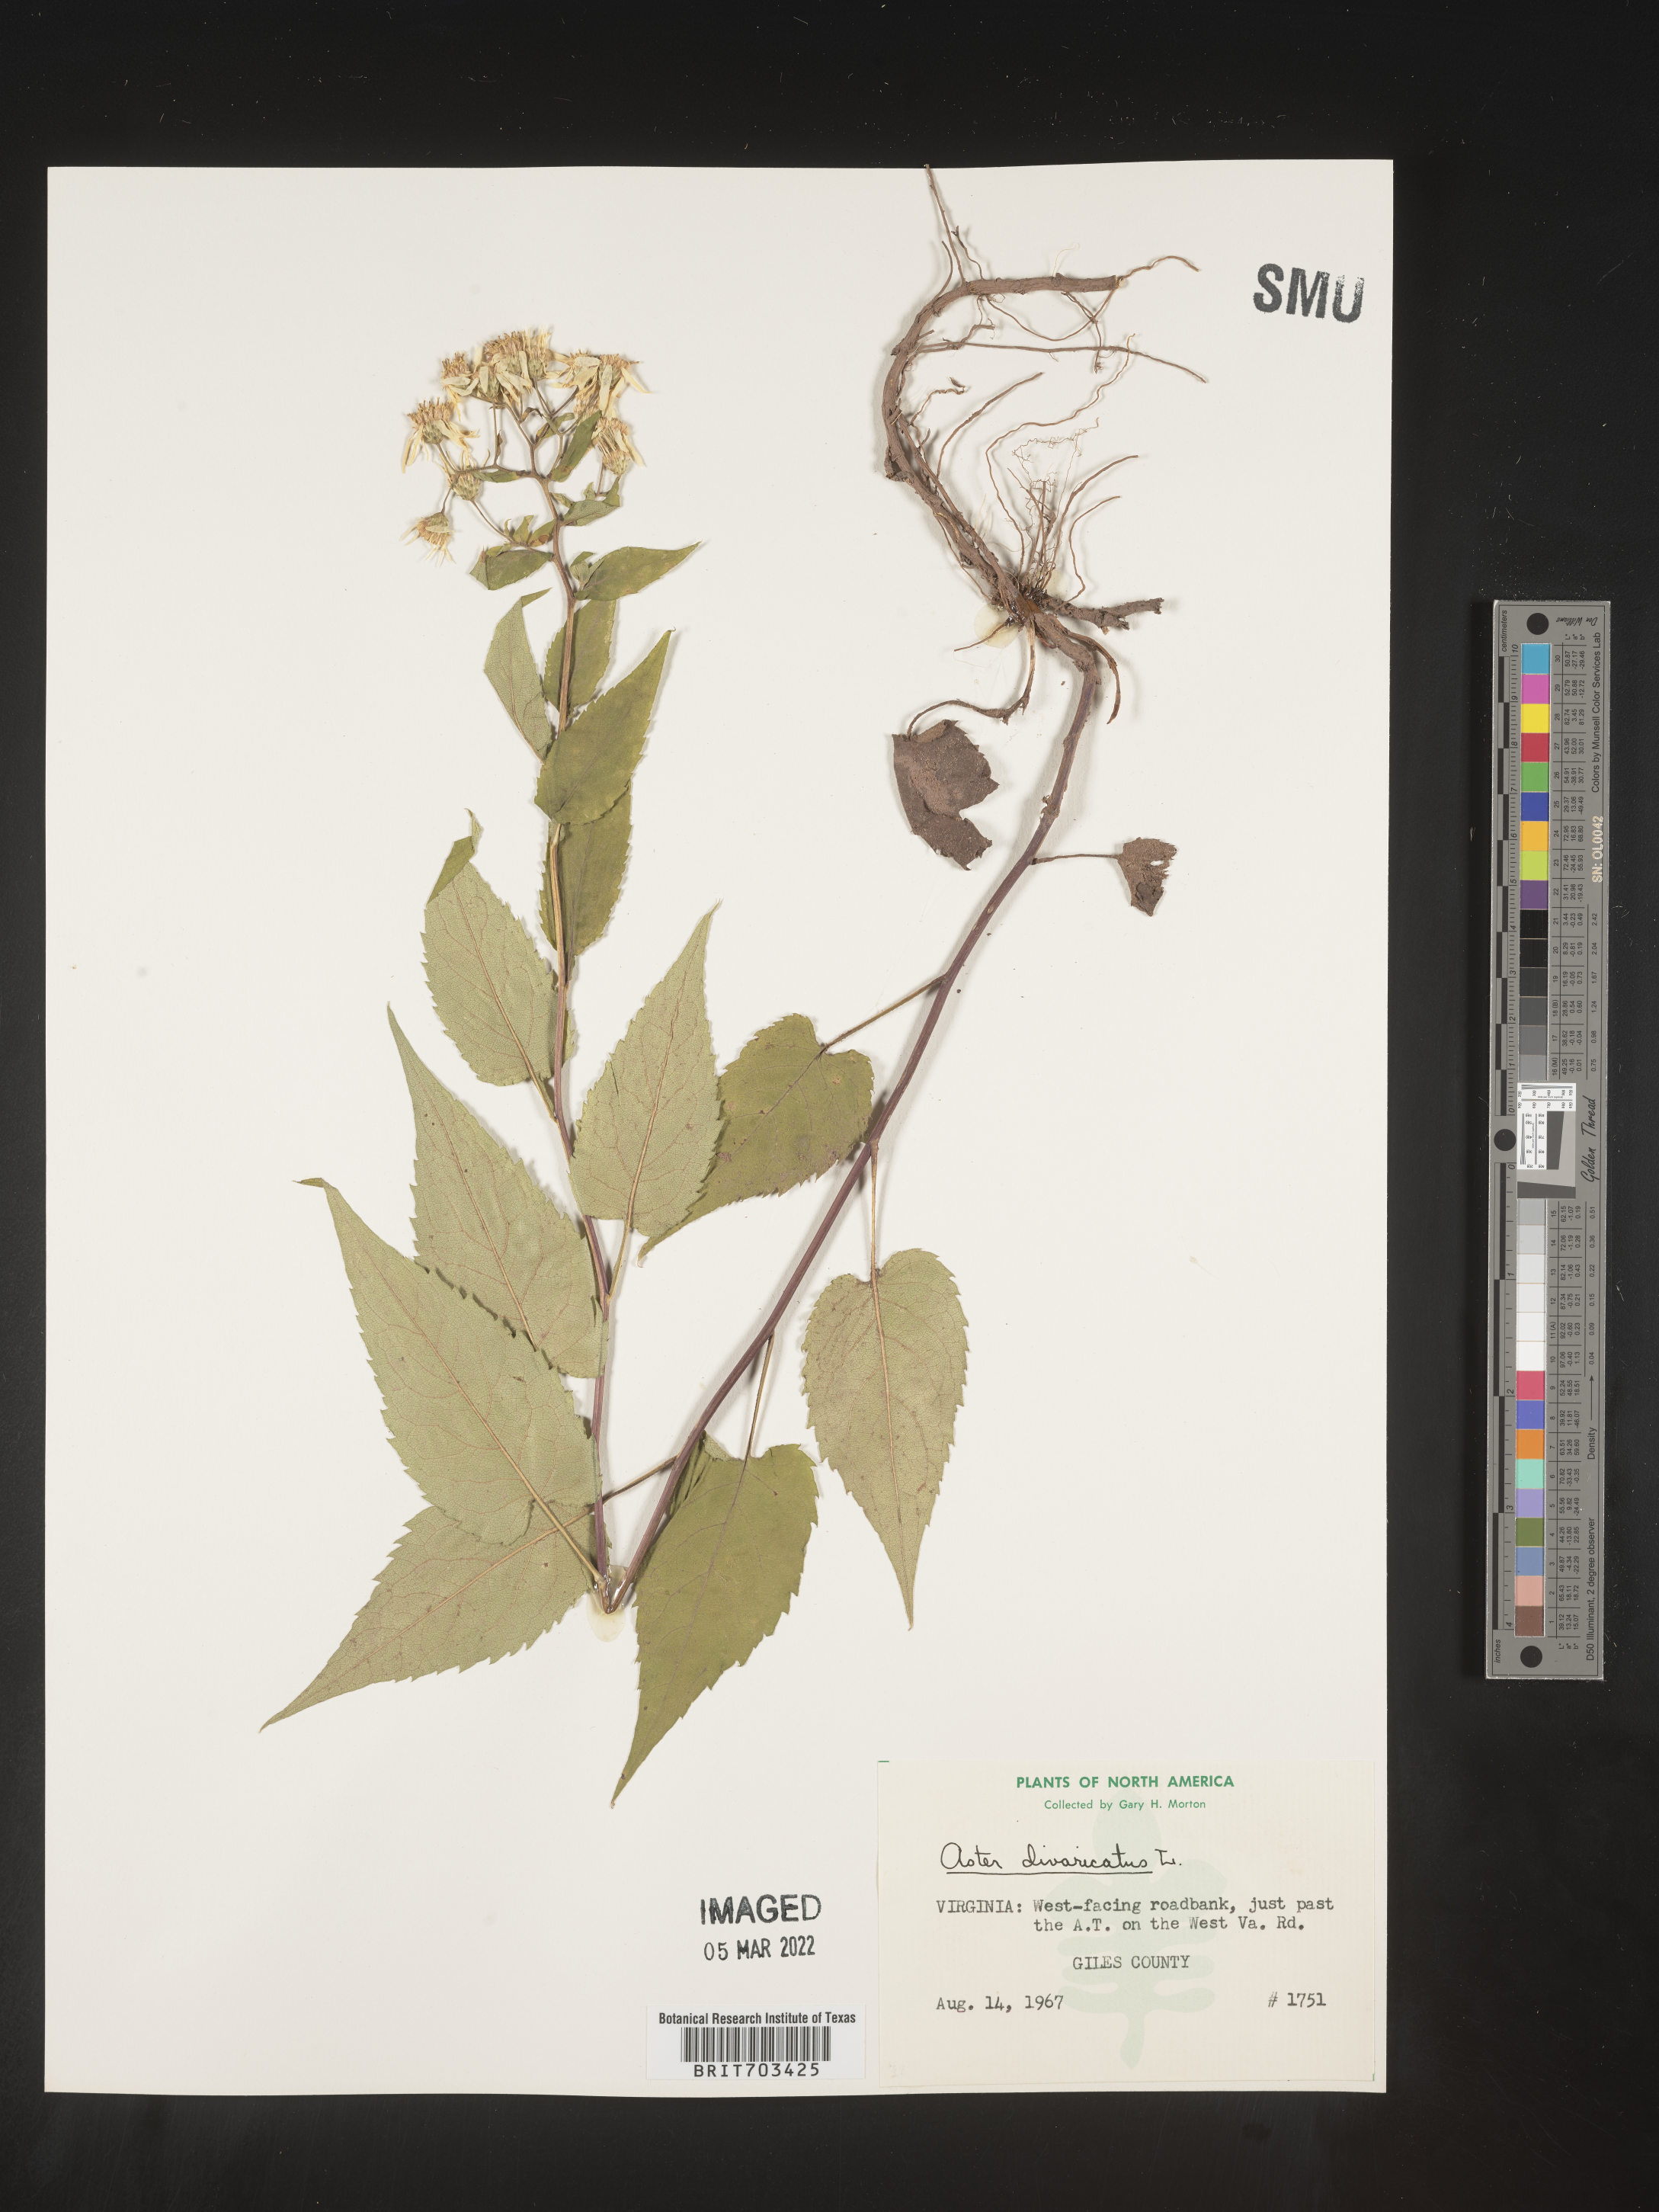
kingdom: Plantae
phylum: Tracheophyta
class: Magnoliopsida
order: Asterales
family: Asteraceae
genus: Eurybia
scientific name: Eurybia divaricata
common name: White wood aster
